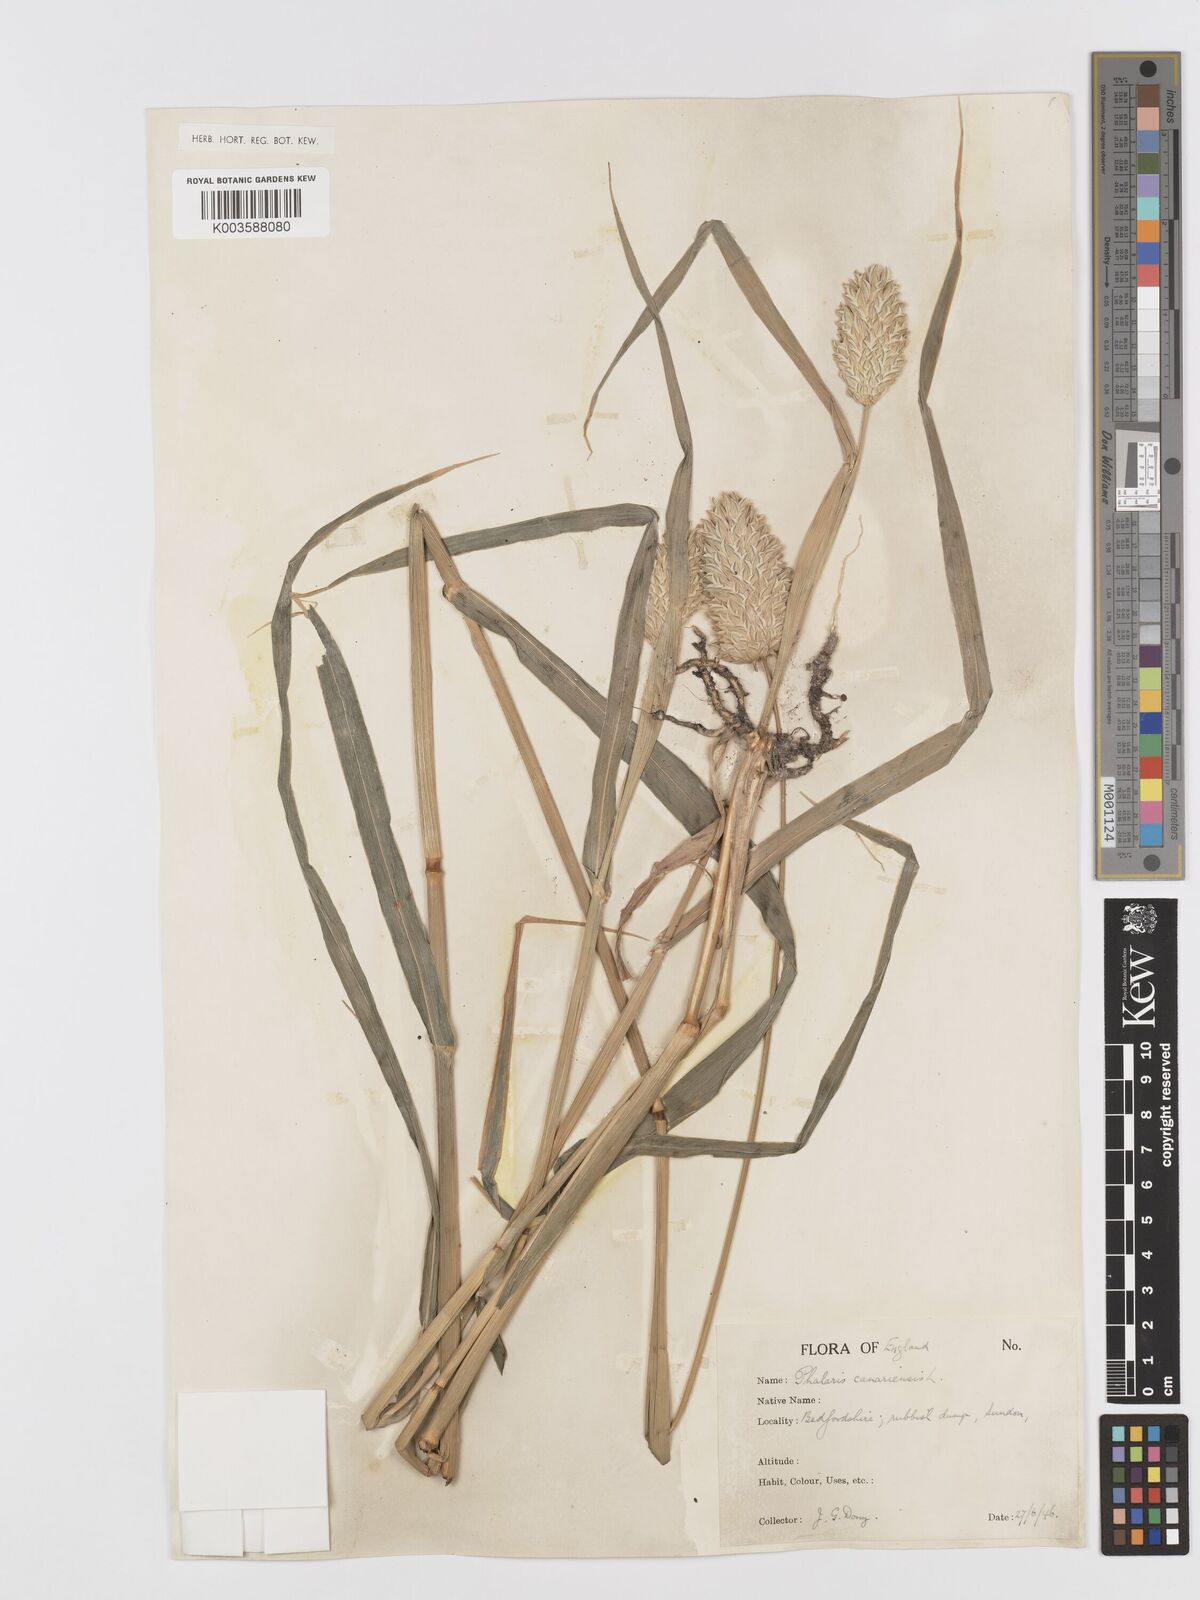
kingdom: Plantae
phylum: Tracheophyta
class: Liliopsida
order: Poales
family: Poaceae
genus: Phalaris
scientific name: Phalaris canariensis
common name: Annual canarygrass
